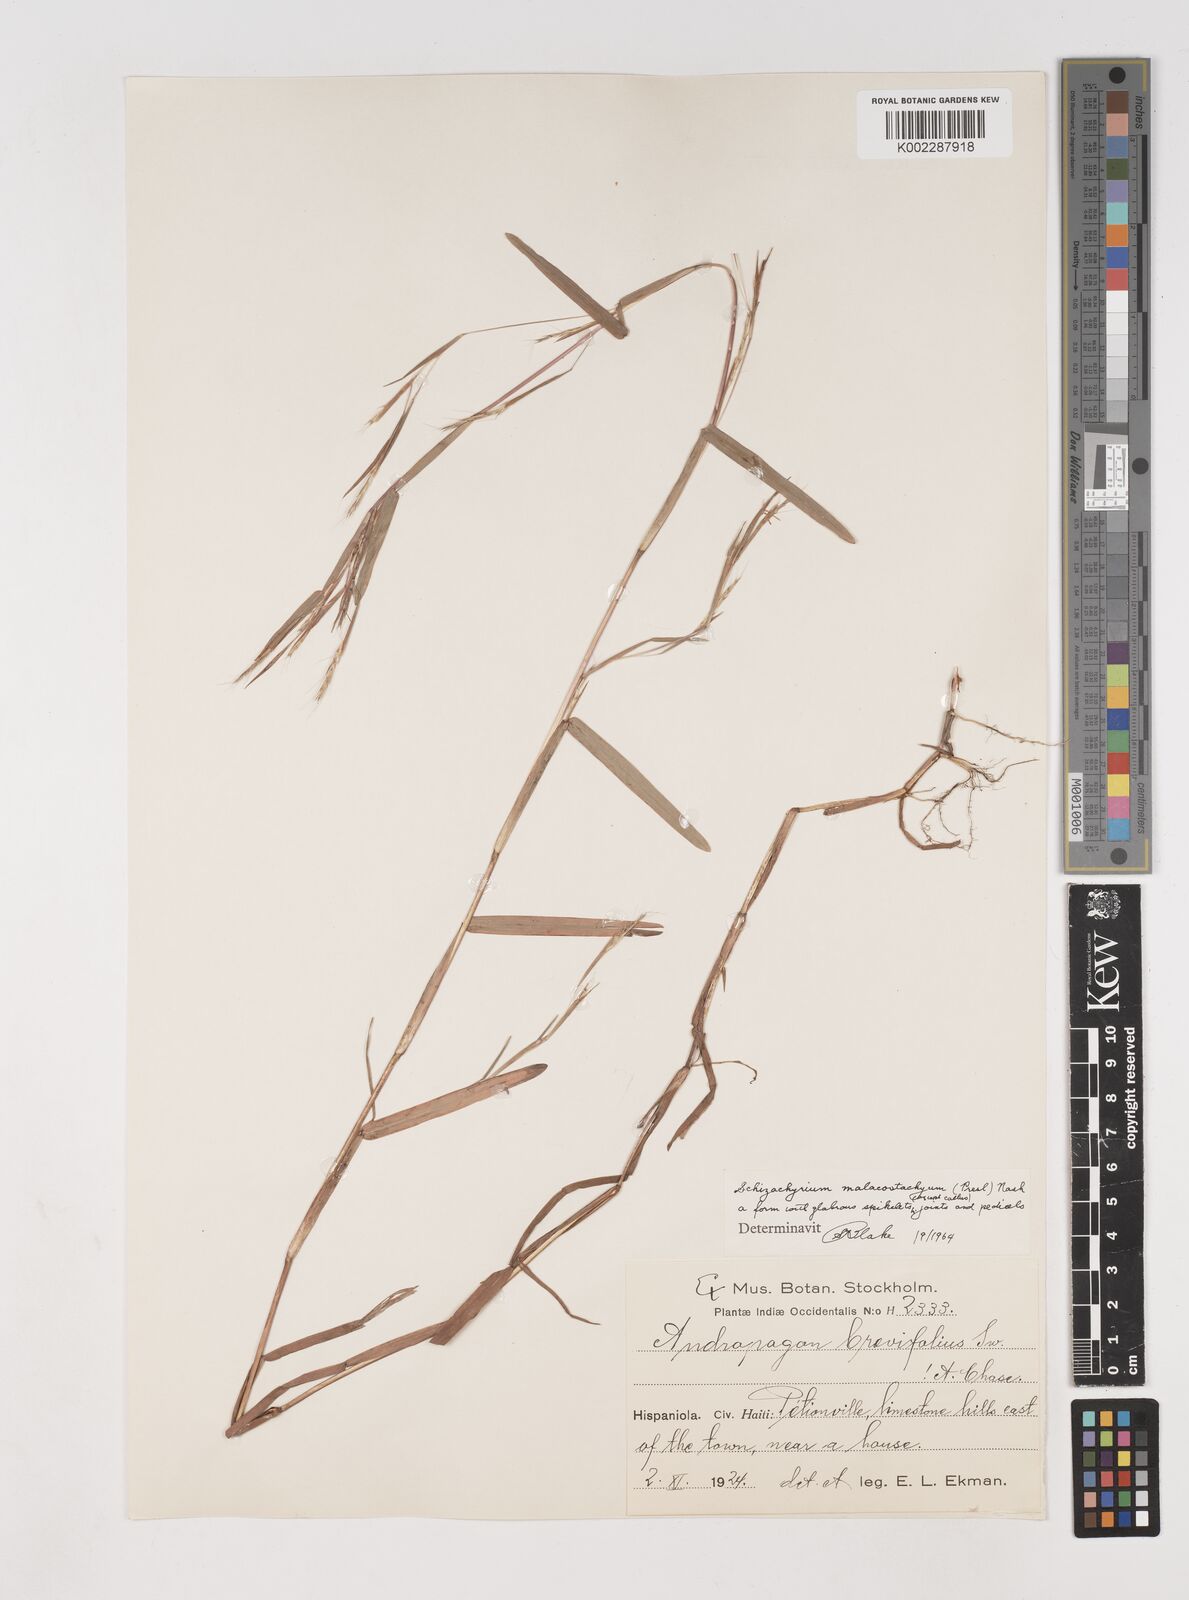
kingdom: Plantae
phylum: Tracheophyta
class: Liliopsida
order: Poales
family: Poaceae
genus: Schizachyrium
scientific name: Schizachyrium malacostachyum
